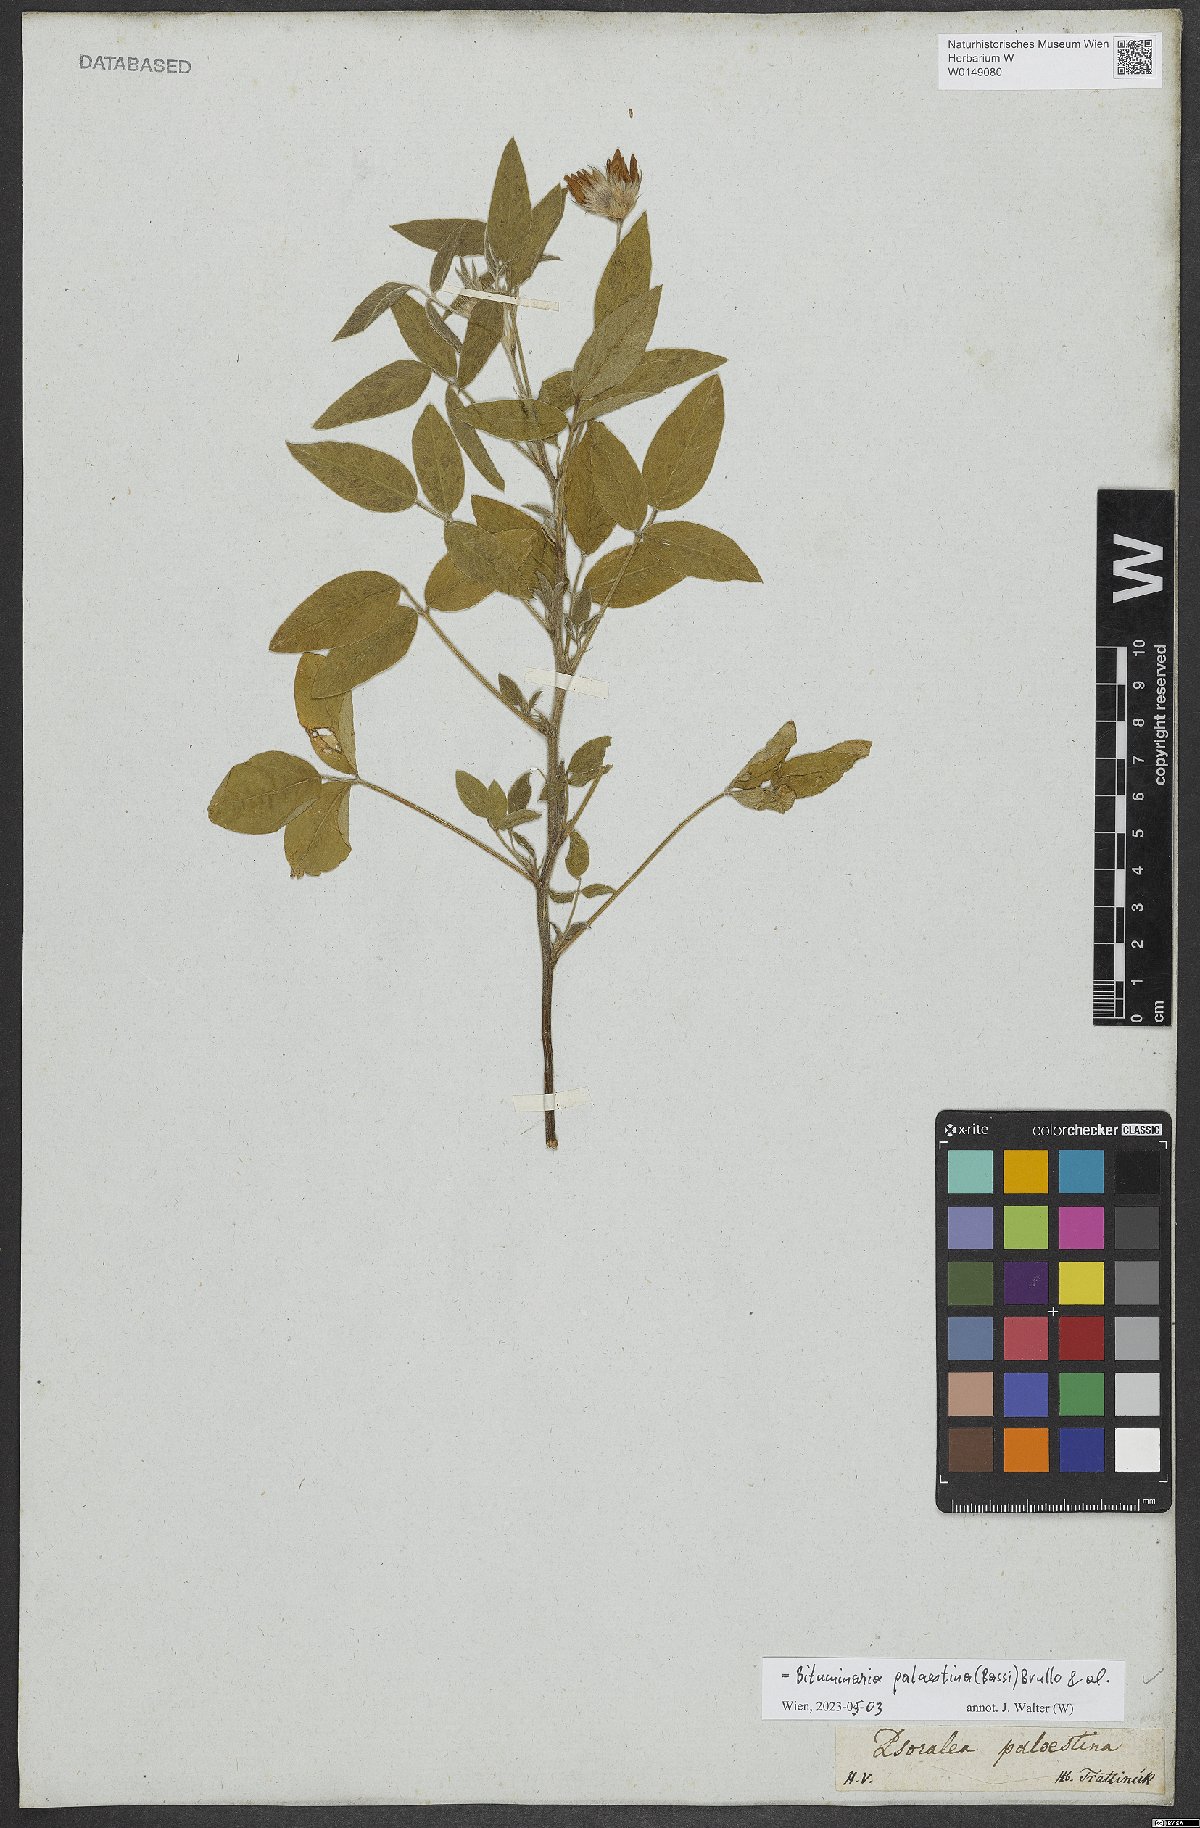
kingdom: Plantae
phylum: Tracheophyta
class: Magnoliopsida
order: Fabales
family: Fabaceae
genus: Bituminaria
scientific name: Bituminaria palaestina
